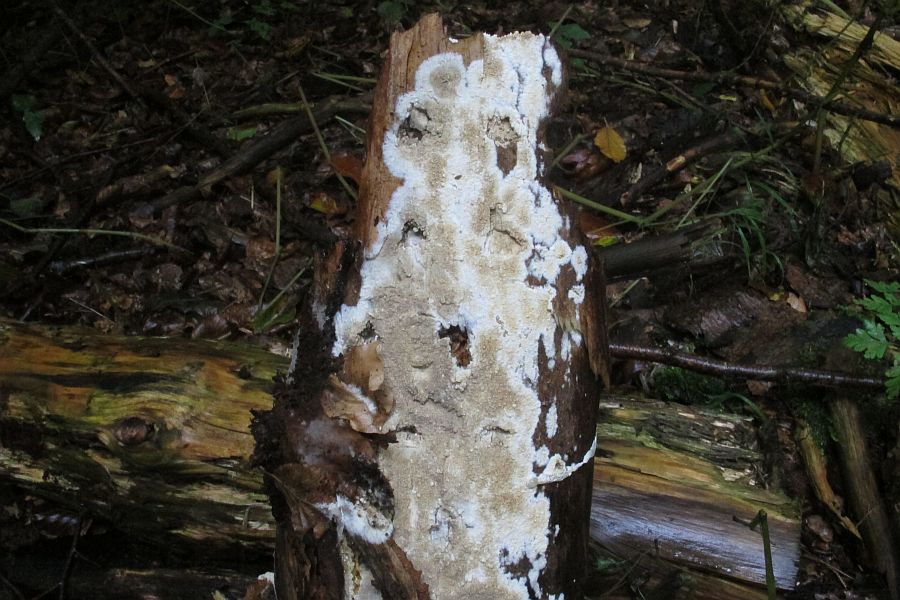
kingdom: Fungi
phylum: Basidiomycota
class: Agaricomycetes
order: Boletales
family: Coniophoraceae
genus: Coniophora
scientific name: Coniophora puteana
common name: gul tømmersvamp
